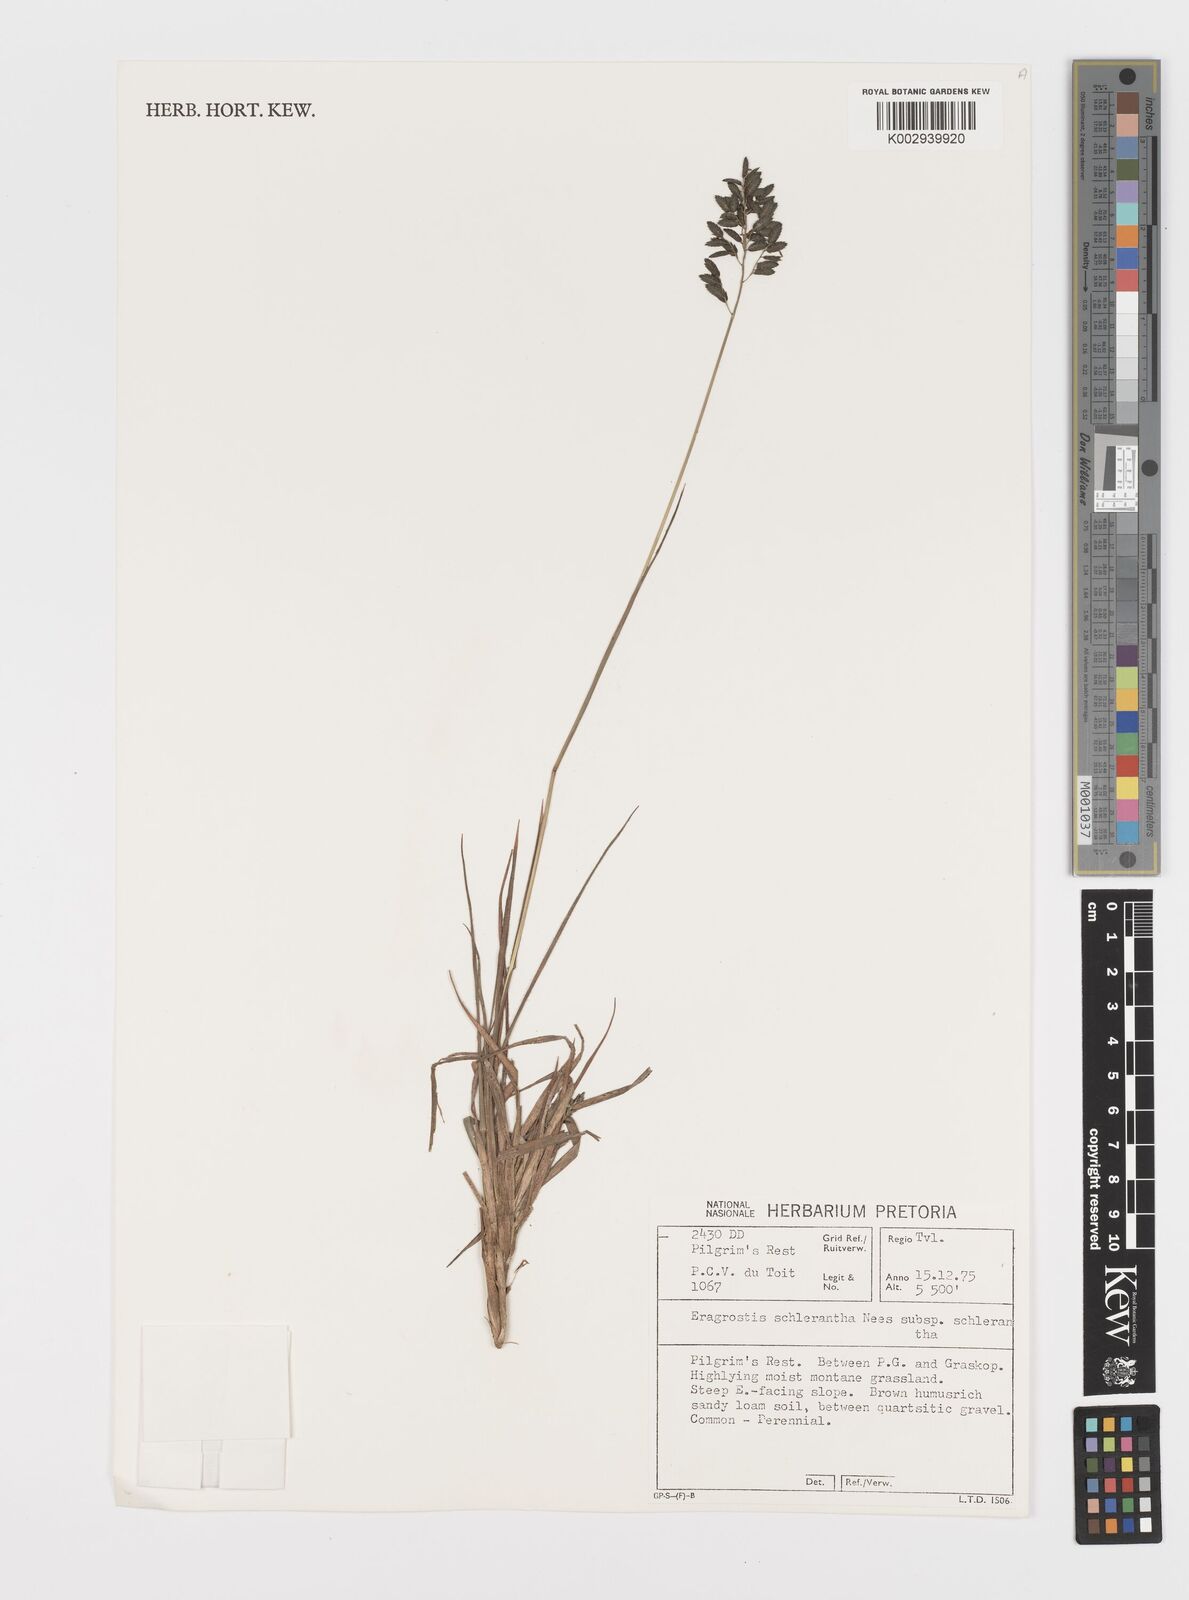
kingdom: Plantae
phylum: Tracheophyta
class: Liliopsida
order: Poales
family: Poaceae
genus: Eragrostis
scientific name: Eragrostis sclerantha
